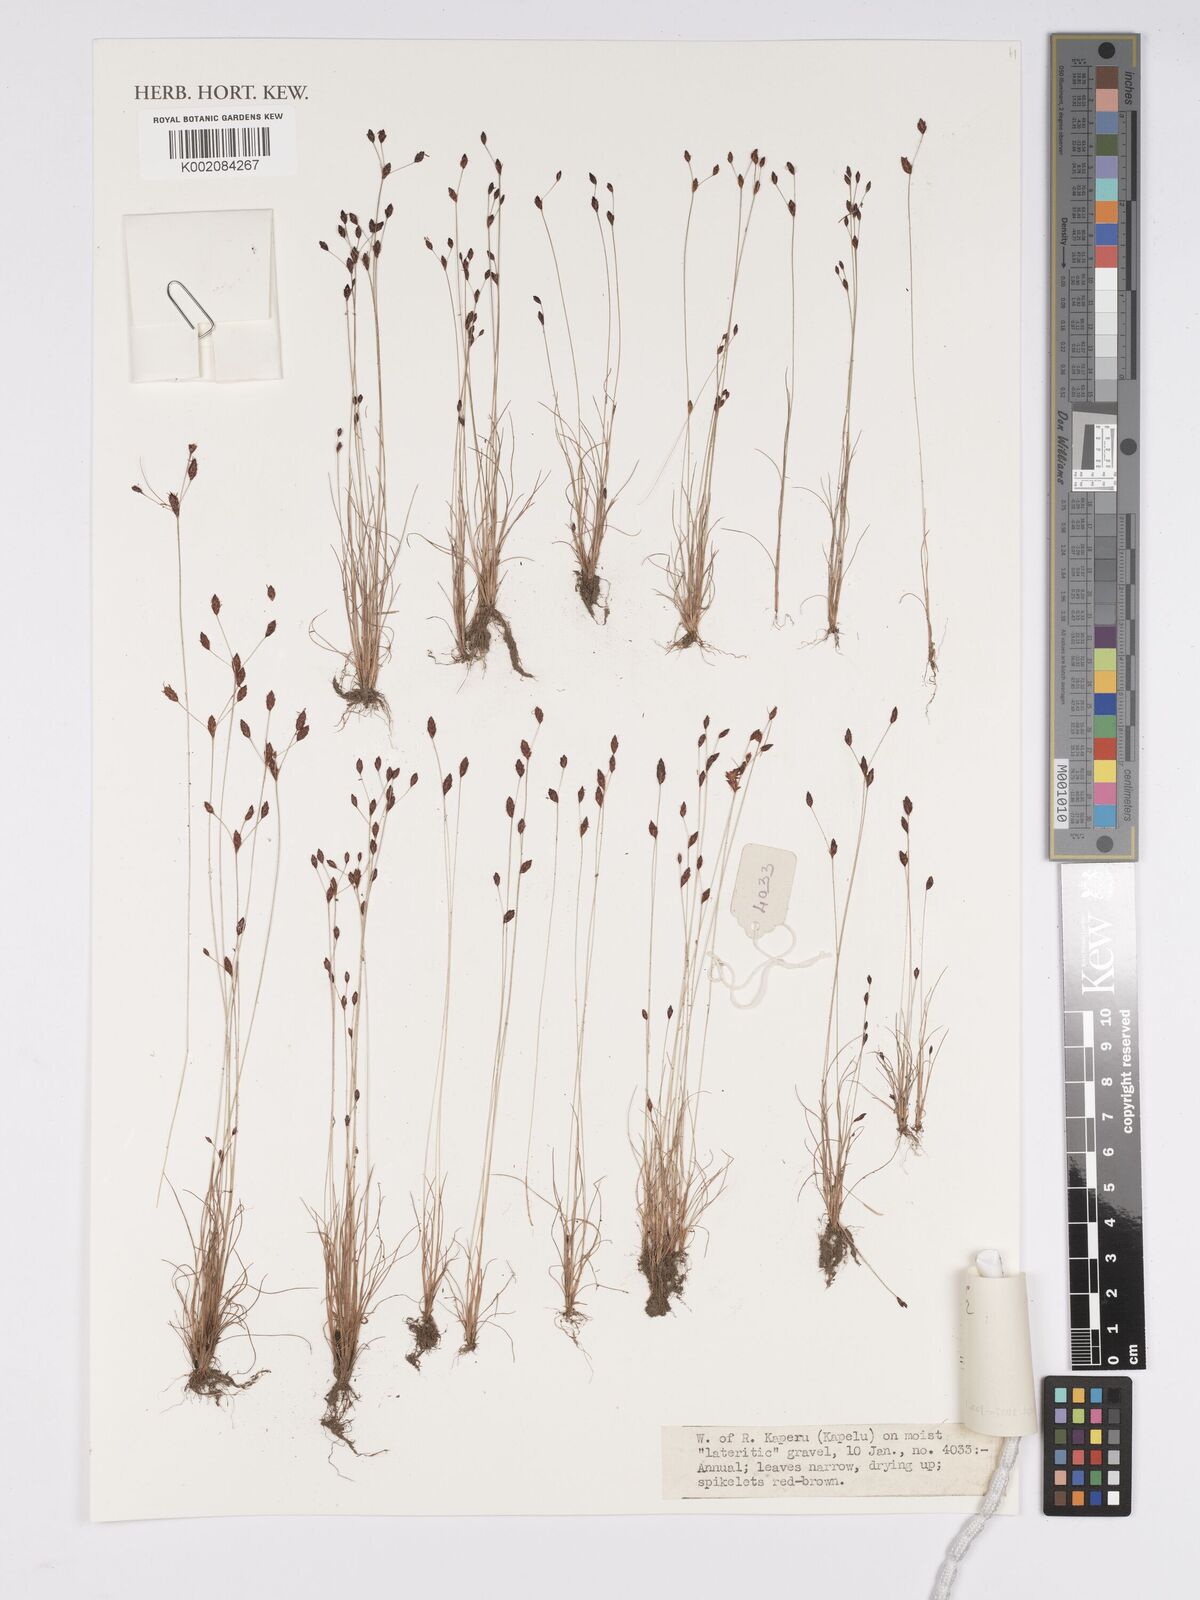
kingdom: Plantae
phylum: Tracheophyta
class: Liliopsida
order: Poales
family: Cyperaceae
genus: Bulbostylis
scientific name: Bulbostylis
